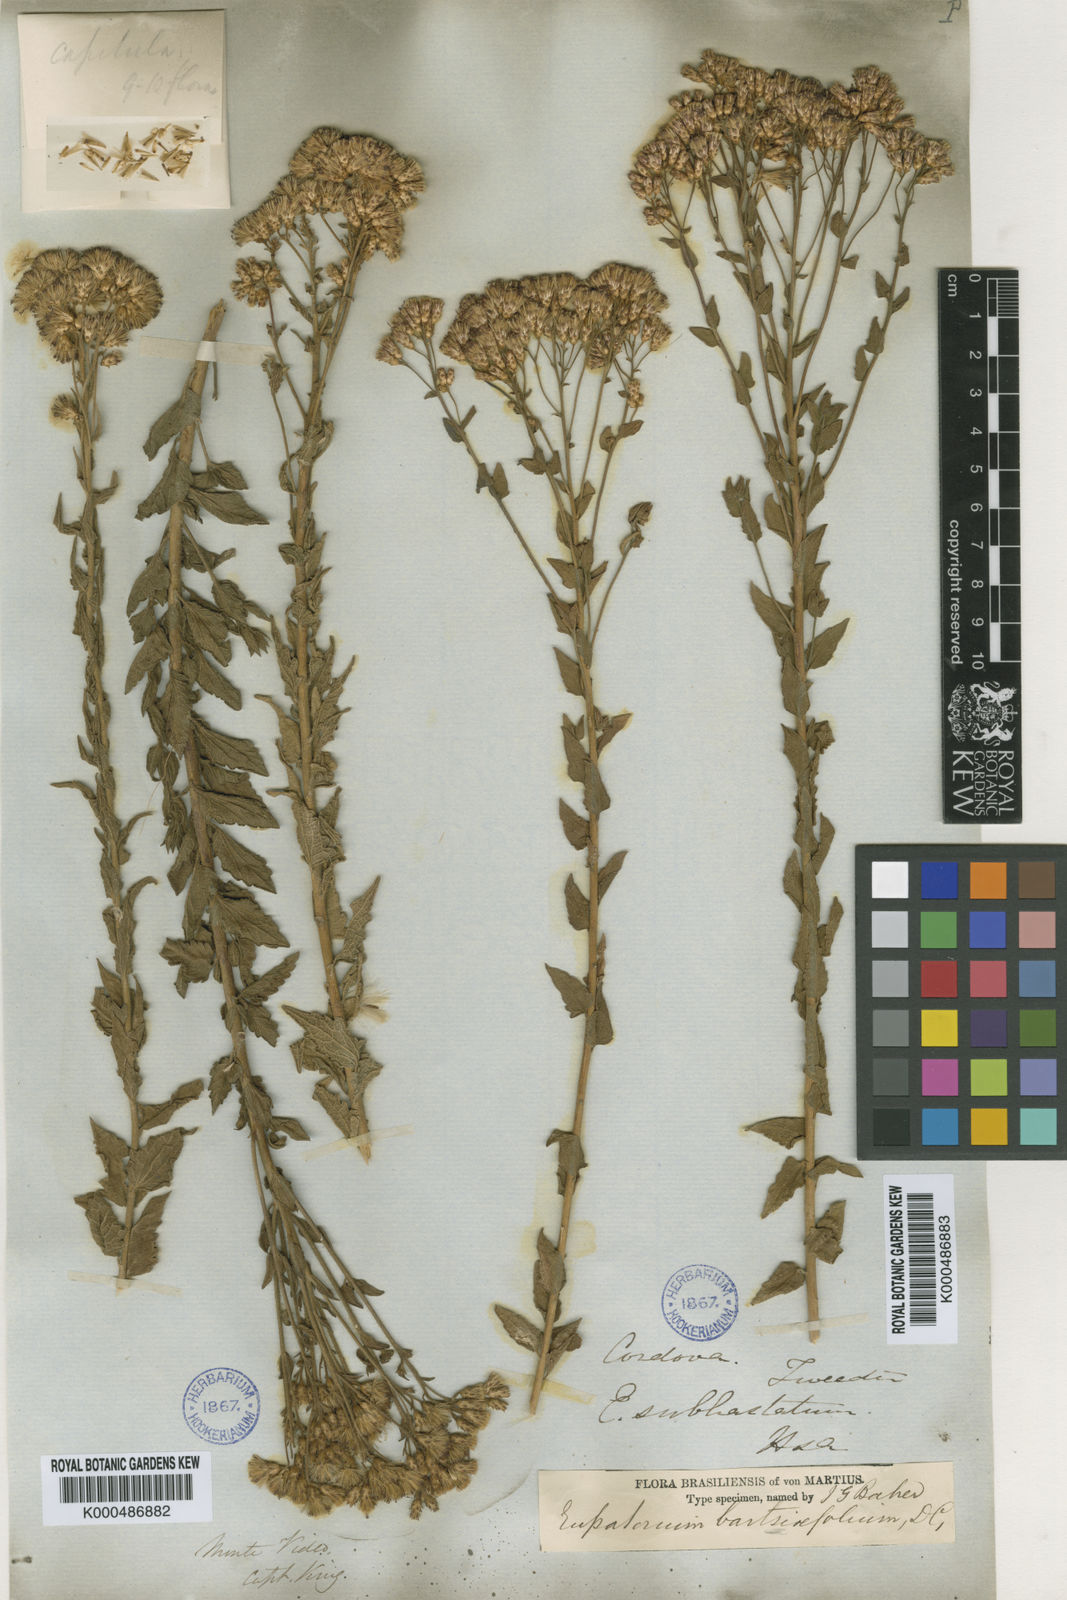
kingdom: Plantae
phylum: Tracheophyta
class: Magnoliopsida
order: Asterales
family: Asteraceae
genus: Chromolaena
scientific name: Chromolaena hirsuta
